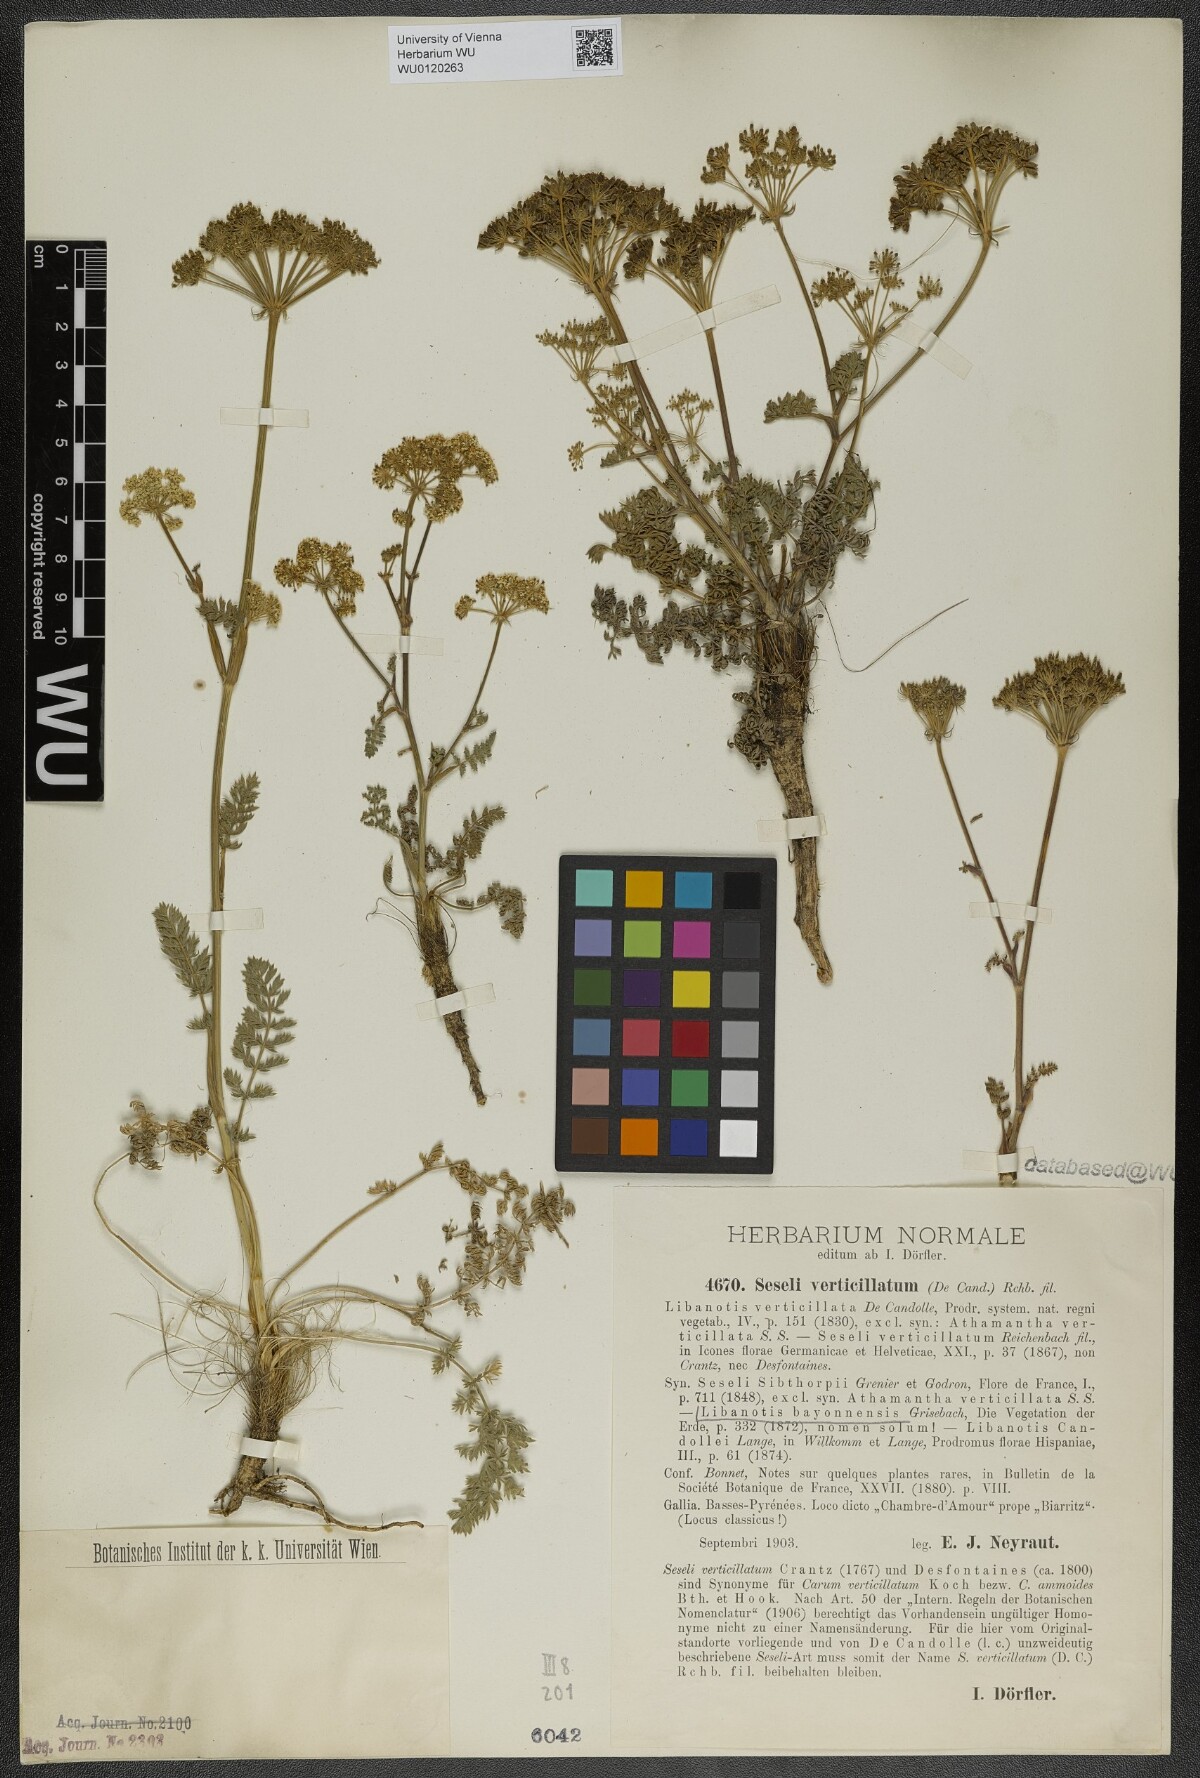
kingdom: Plantae
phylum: Tracheophyta
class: Magnoliopsida
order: Apiales
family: Apiaceae
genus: Seseli
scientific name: Seseli libanotis
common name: Mooncarrot
